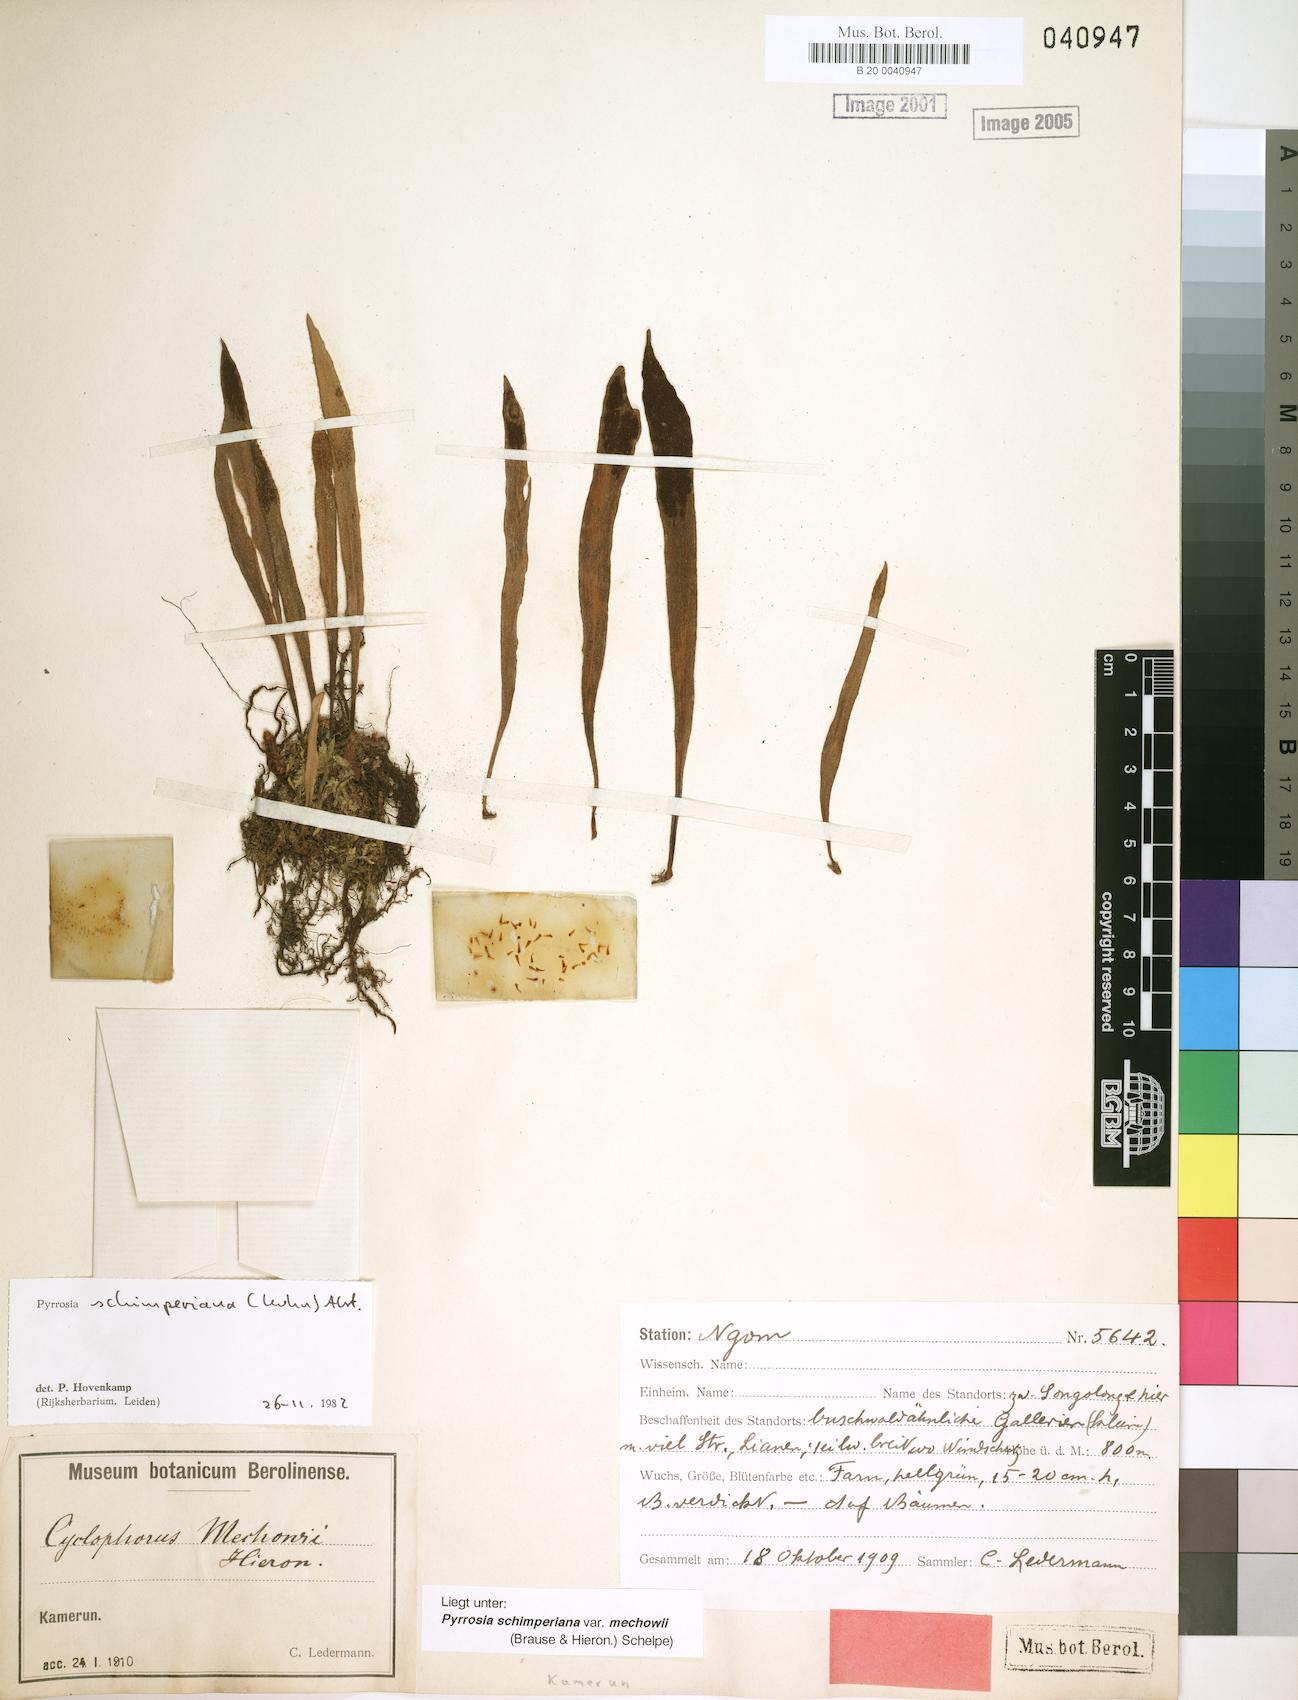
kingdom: Plantae
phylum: Tracheophyta
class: Polypodiopsida
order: Polypodiales
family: Polypodiaceae
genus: Hovenkampia
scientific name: Hovenkampia schimperiana
